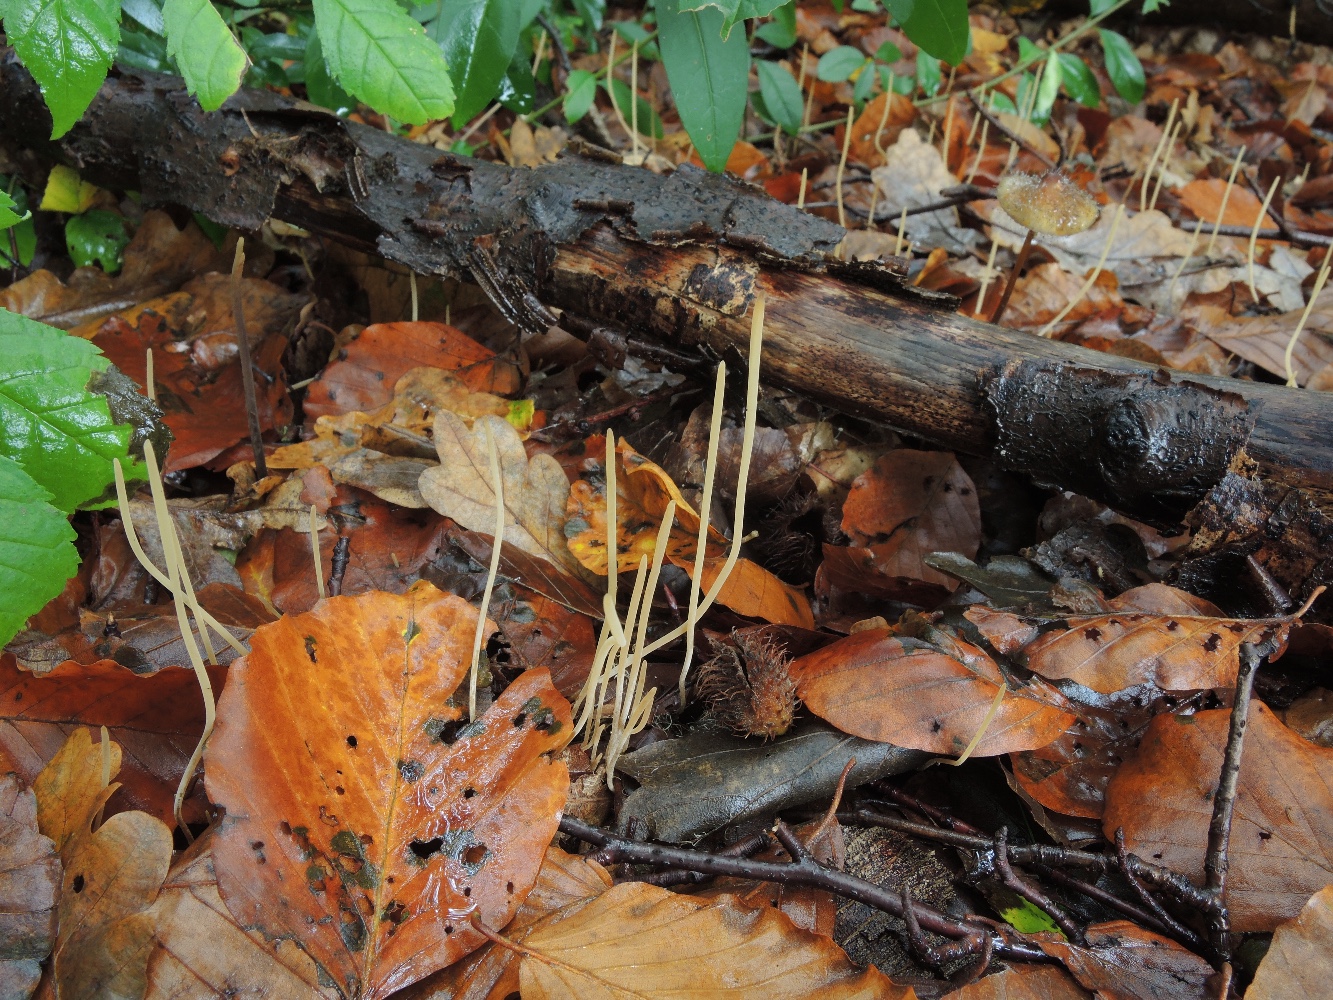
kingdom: Fungi
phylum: Basidiomycota
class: Agaricomycetes
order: Agaricales
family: Typhulaceae
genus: Typhula
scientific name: Typhula juncea
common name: trådagtig rørkølle
